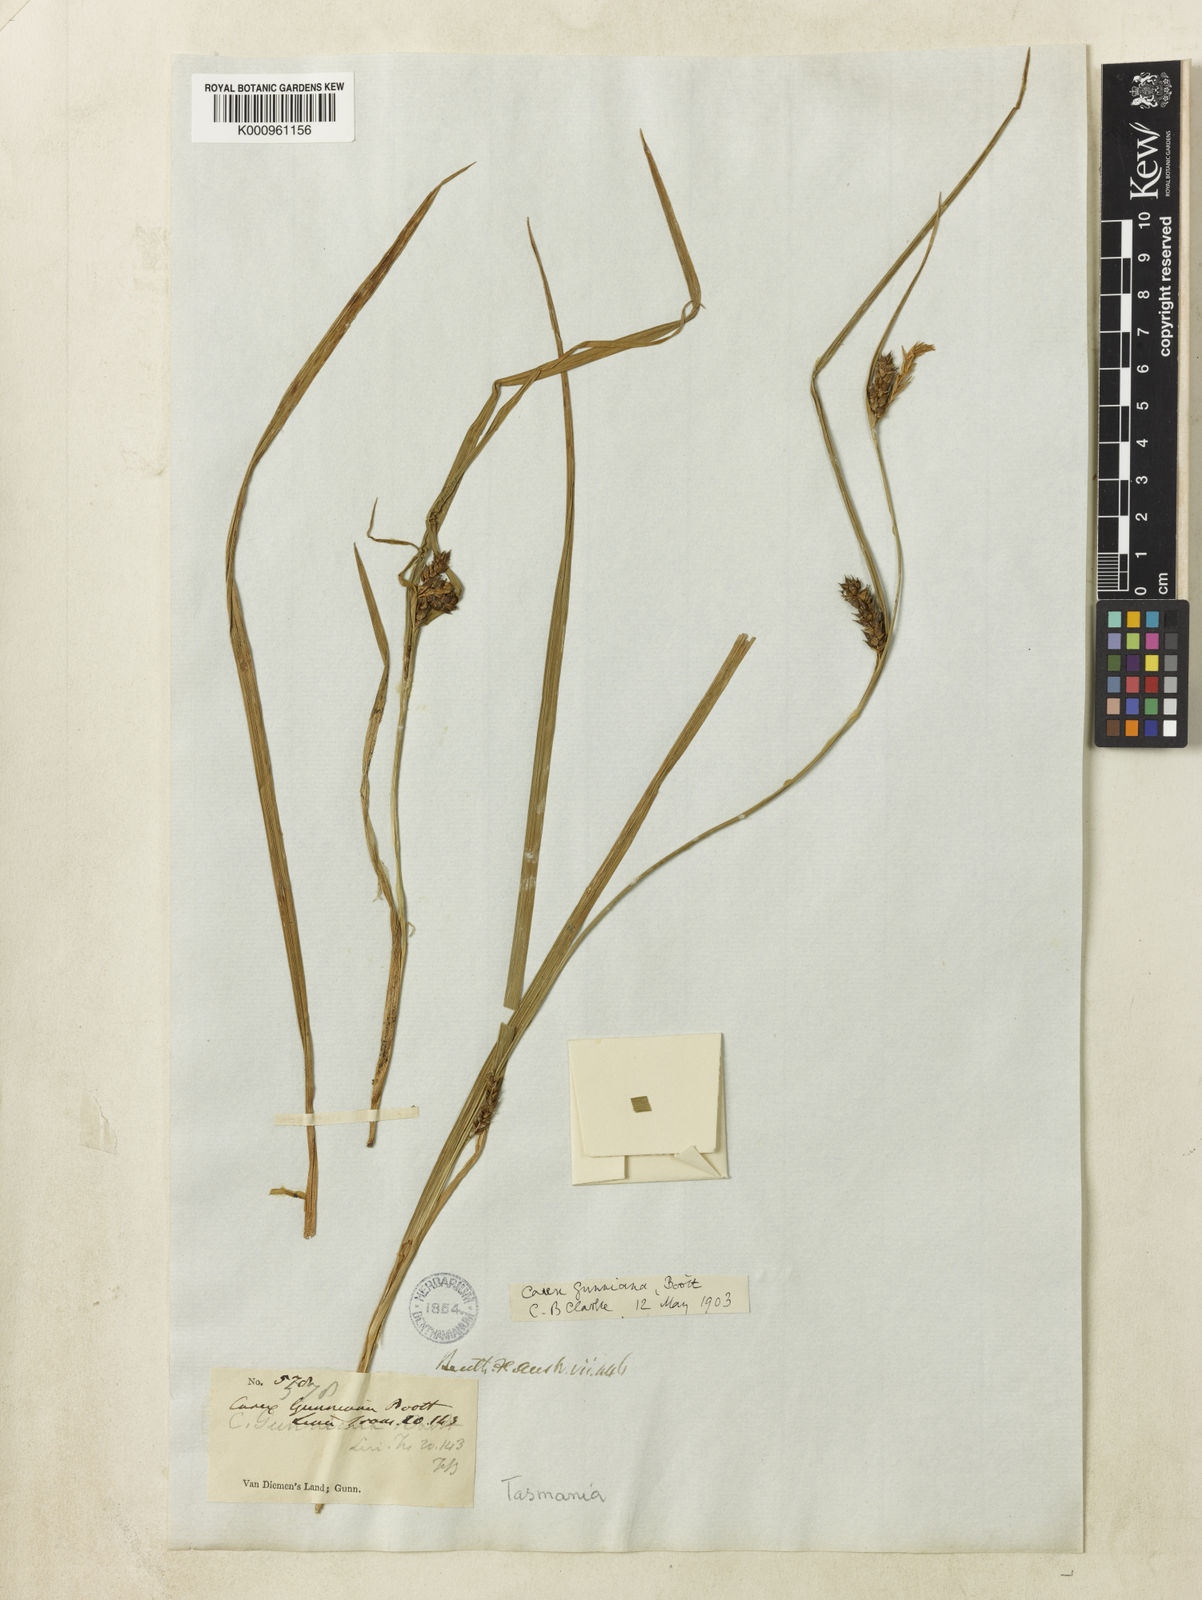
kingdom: Plantae
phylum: Tracheophyta
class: Liliopsida
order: Poales
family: Cyperaceae
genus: Carex
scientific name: Carex gunniana
